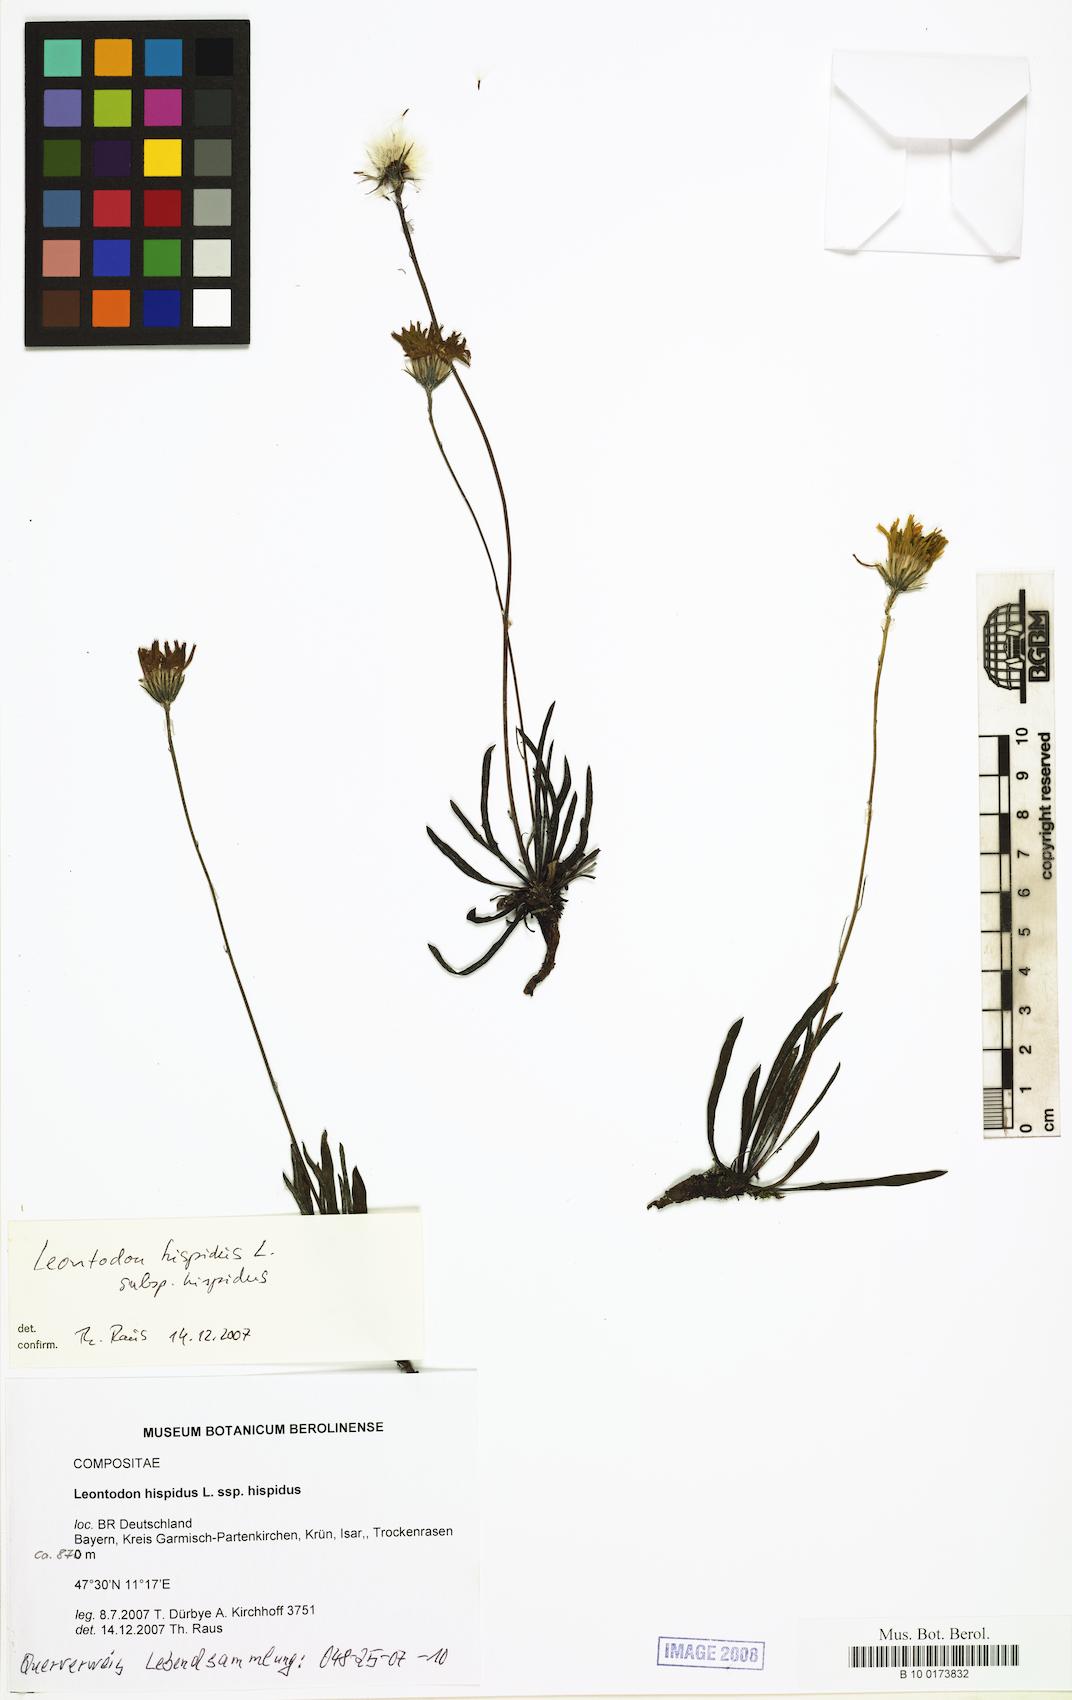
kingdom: Plantae
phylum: Tracheophyta
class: Magnoliopsida
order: Asterales
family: Asteraceae
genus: Leontodon
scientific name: Leontodon hispidus
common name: Rough hawkbit
